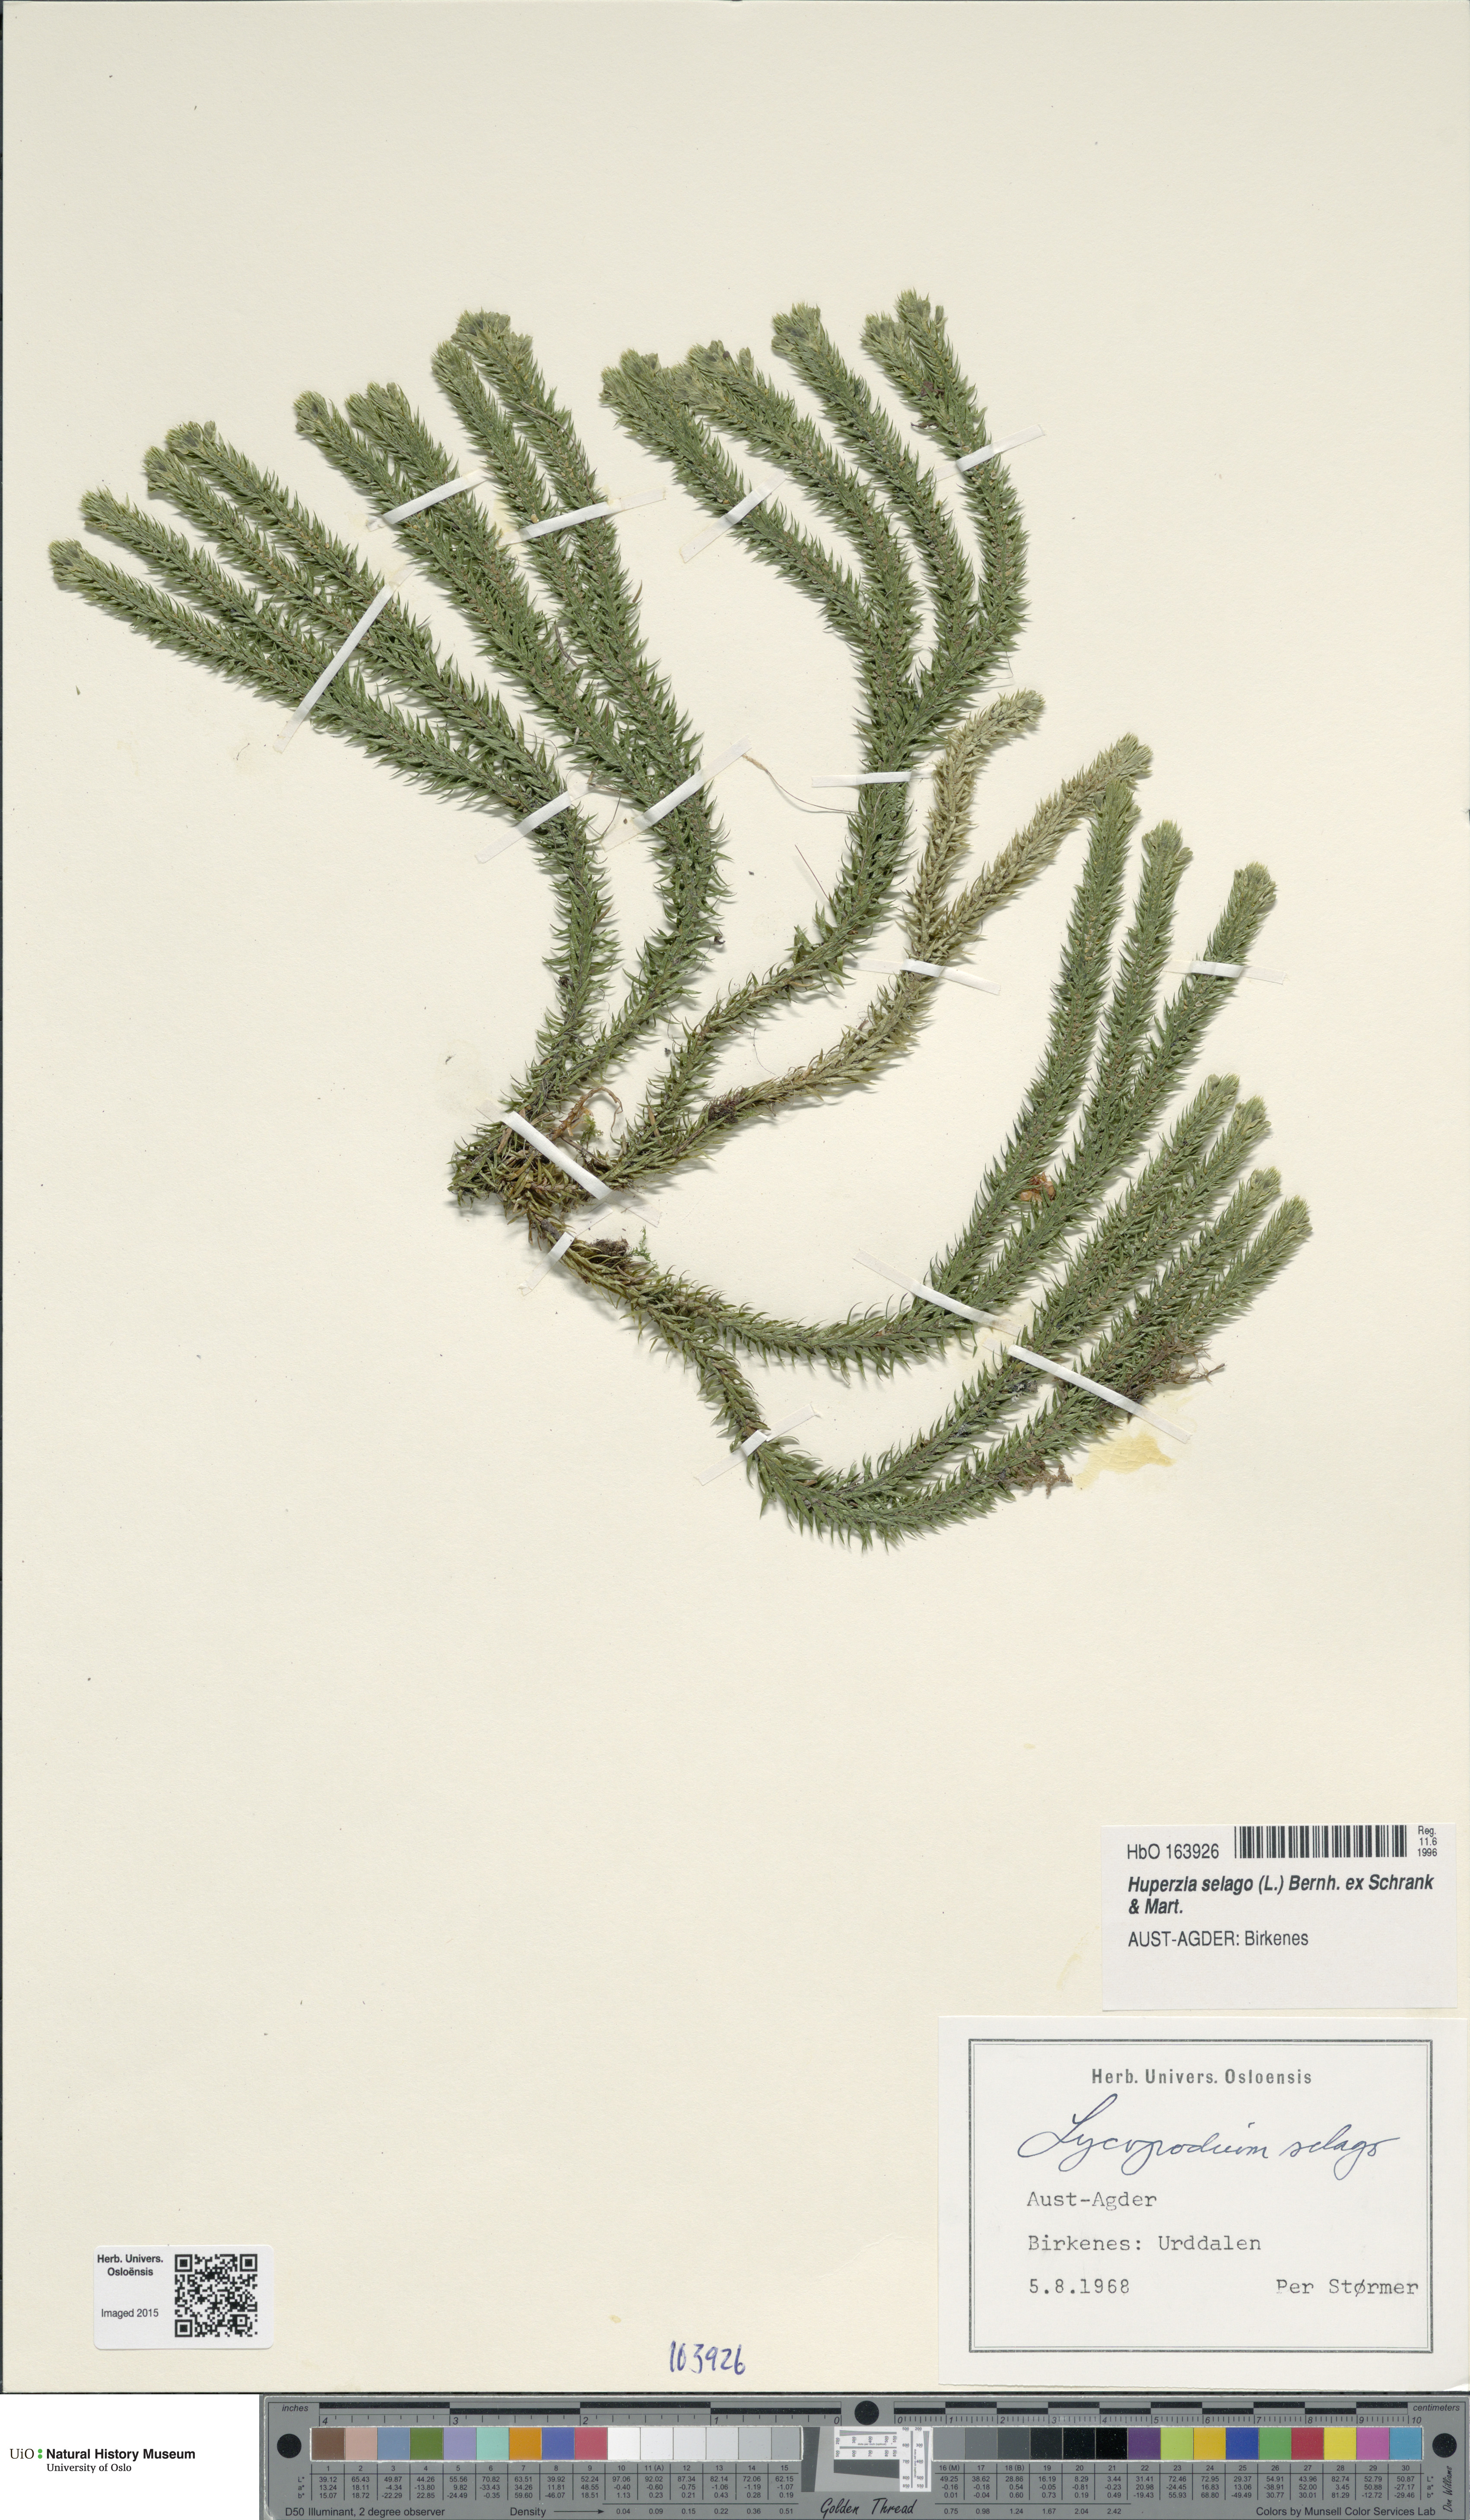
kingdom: Plantae
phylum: Tracheophyta
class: Lycopodiopsida
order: Lycopodiales
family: Lycopodiaceae
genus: Huperzia
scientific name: Huperzia selago
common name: Northern firmoss
